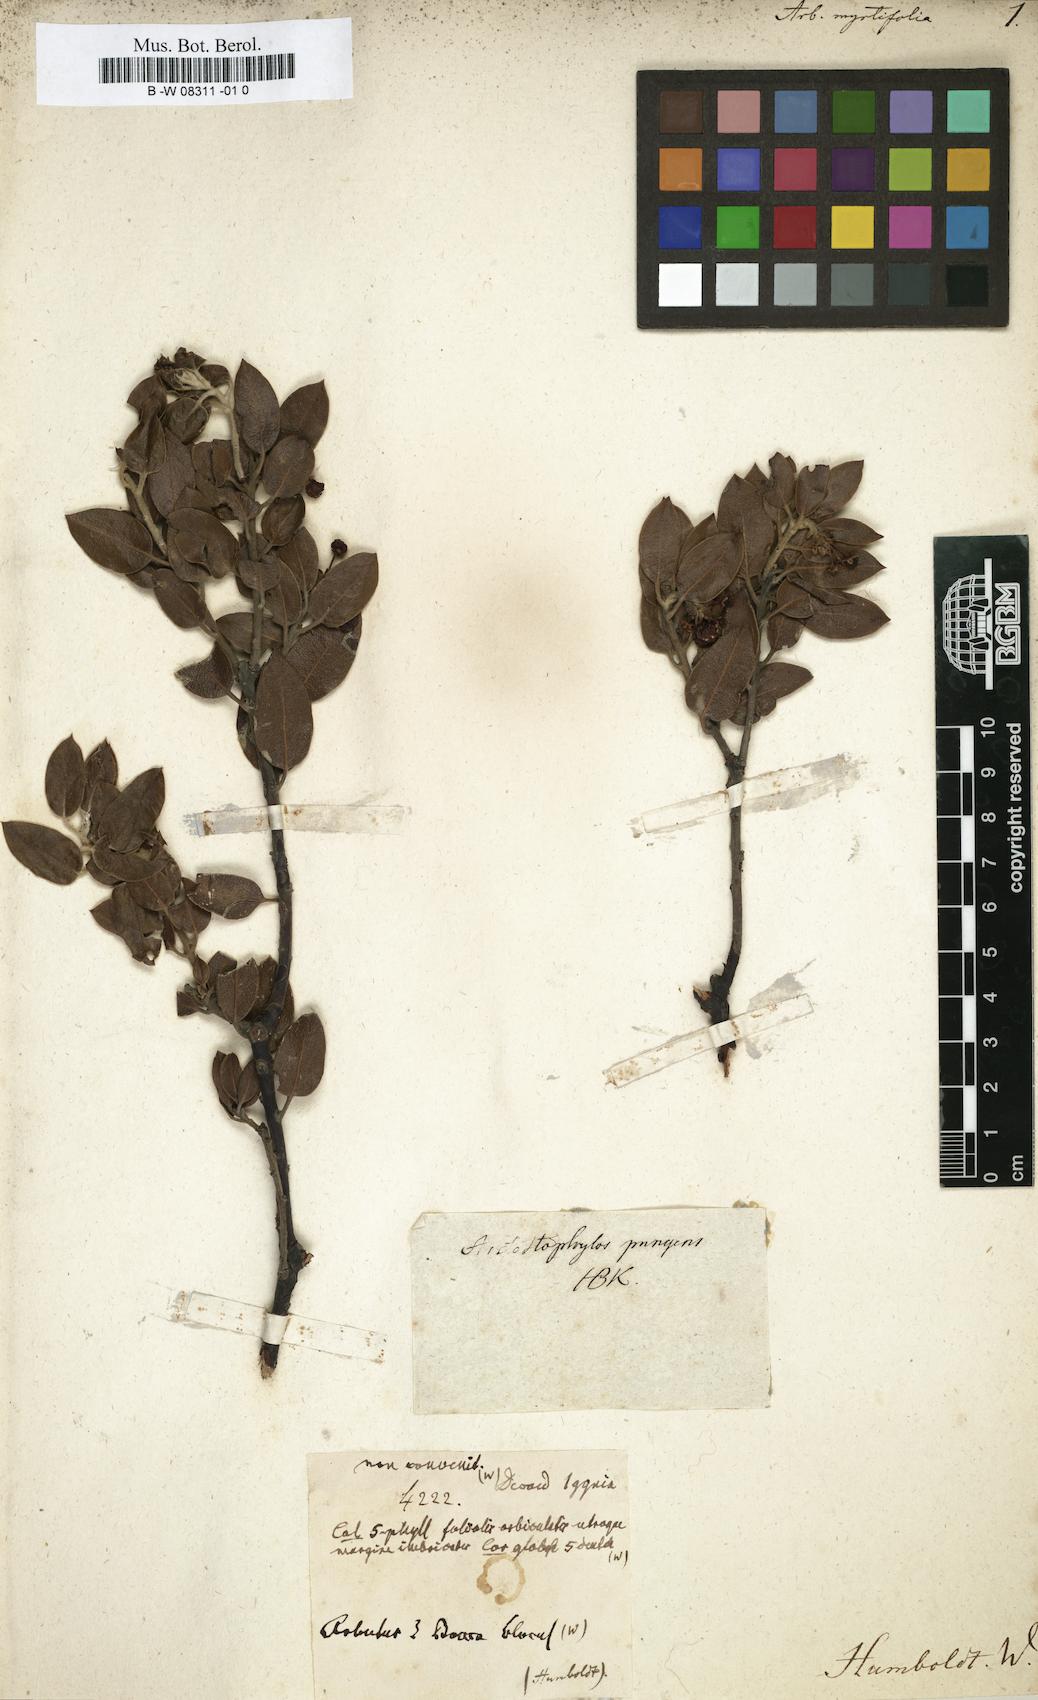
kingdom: Plantae
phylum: Tracheophyta
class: Magnoliopsida
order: Ericales
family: Ericaceae
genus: Arctostaphylos
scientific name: Arctostaphylos pungens
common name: Mexican manzanita
